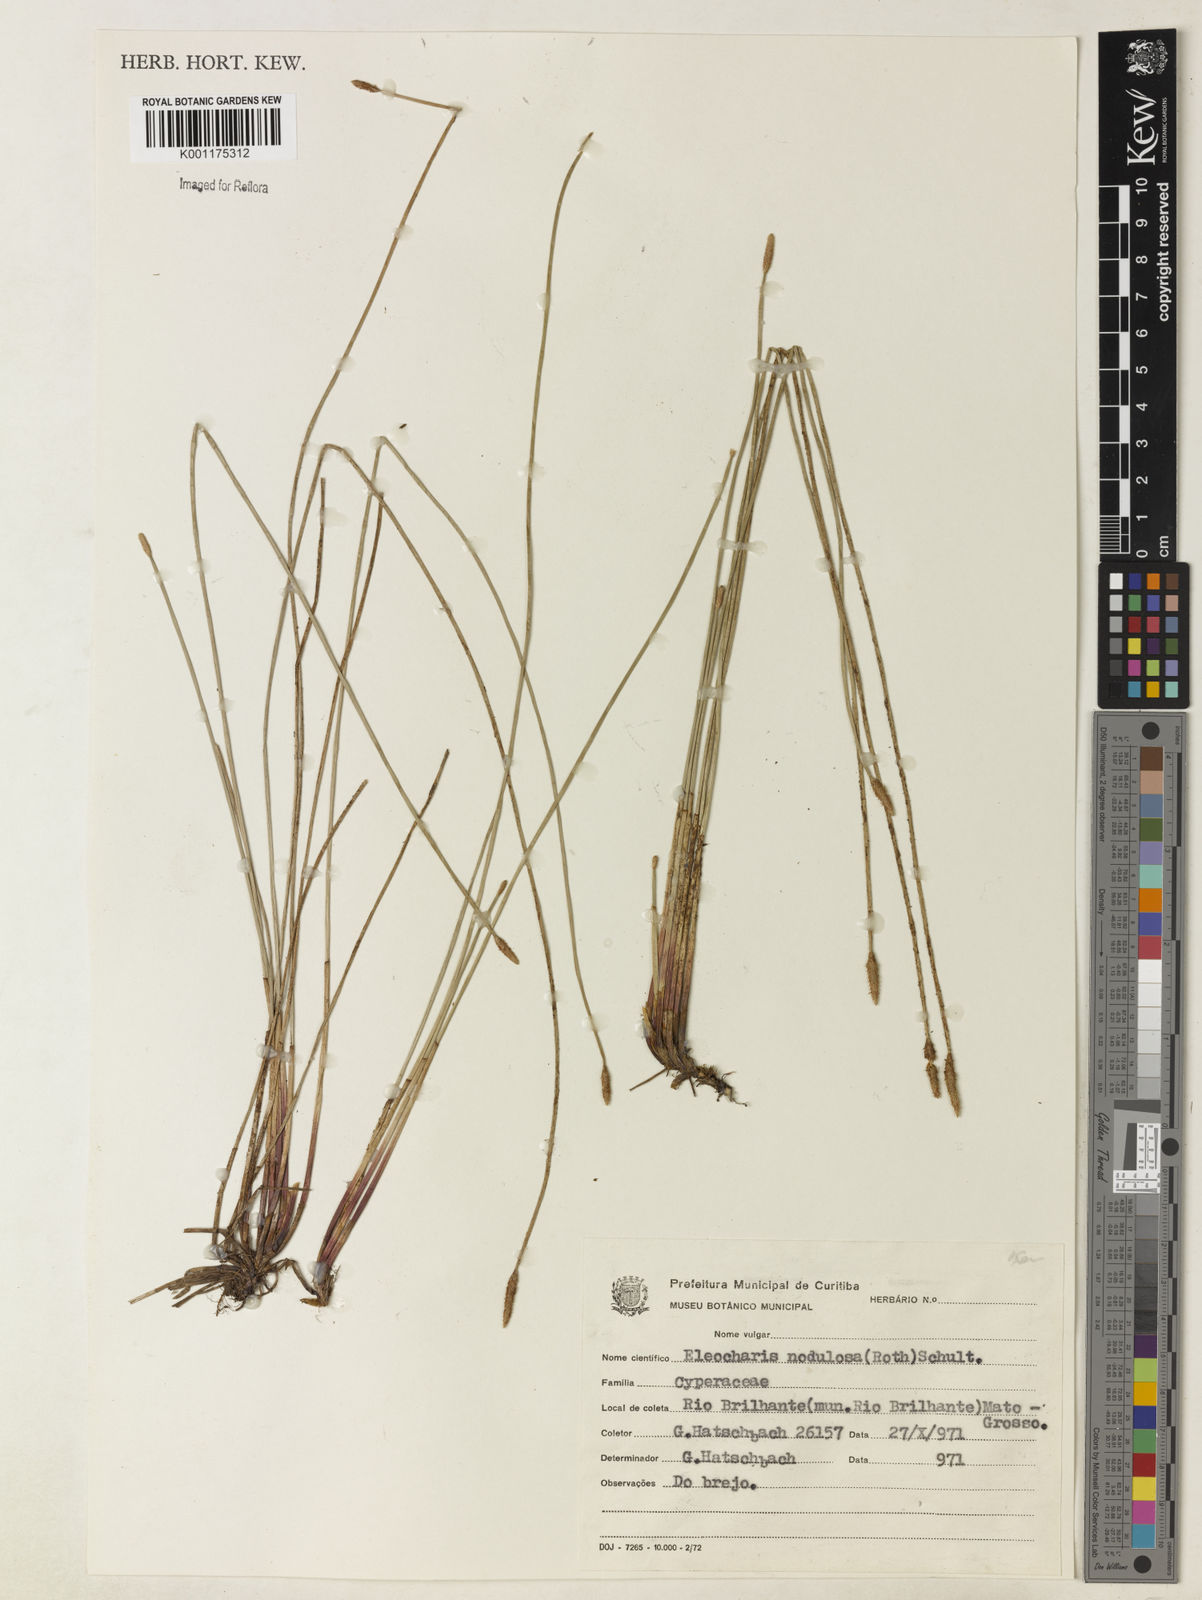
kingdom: Plantae
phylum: Tracheophyta
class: Liliopsida
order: Poales
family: Cyperaceae
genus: Eleocharis
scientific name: Eleocharis montana
